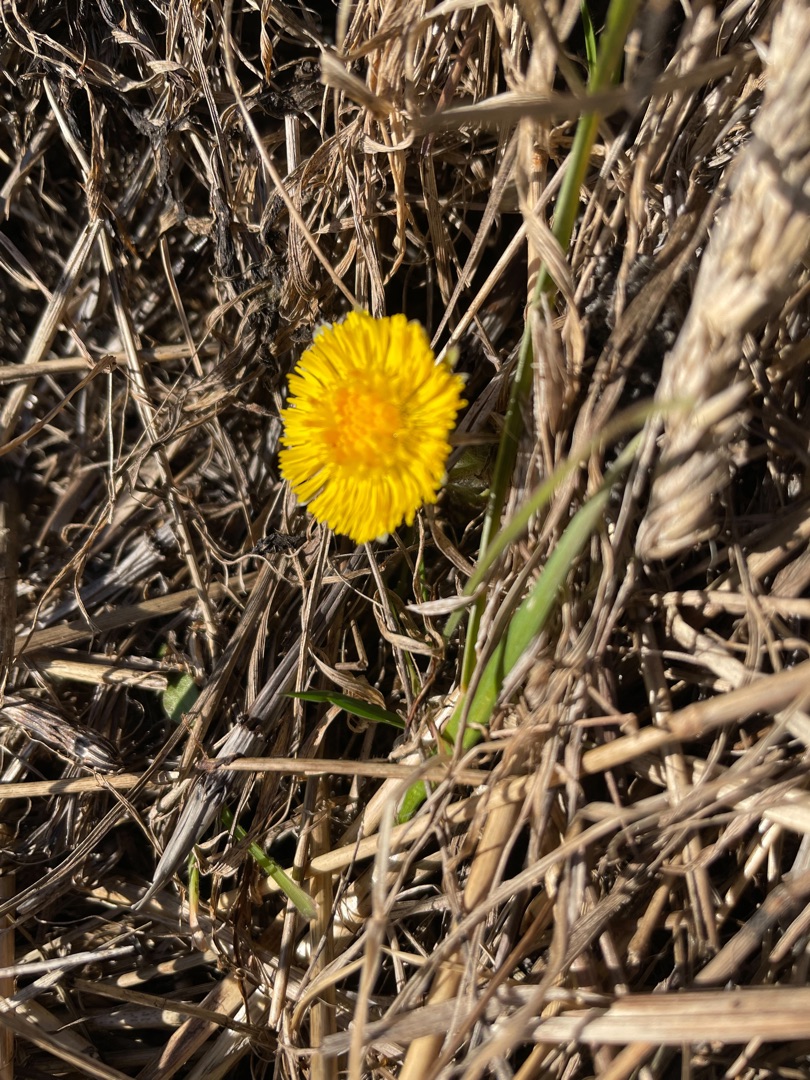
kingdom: Plantae
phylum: Tracheophyta
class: Magnoliopsida
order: Asterales
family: Asteraceae
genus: Tussilago
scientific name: Tussilago farfara
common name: Følfod
